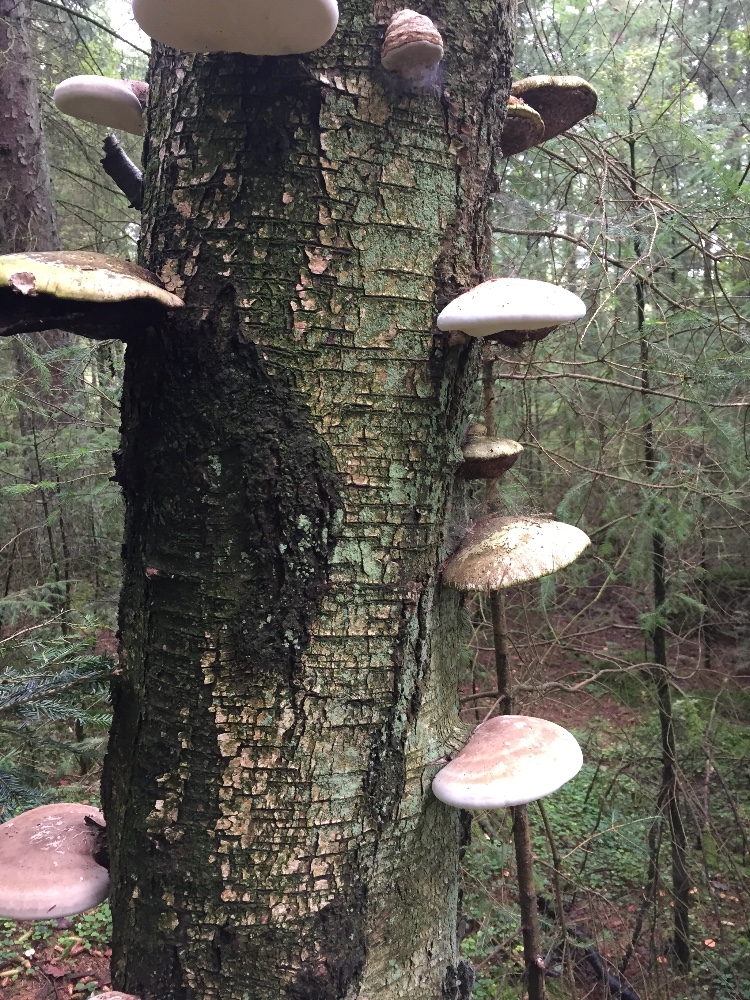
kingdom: Fungi
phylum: Basidiomycota
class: Agaricomycetes
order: Polyporales
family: Fomitopsidaceae
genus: Fomitopsis
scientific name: Fomitopsis betulina
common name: birkeporesvamp
